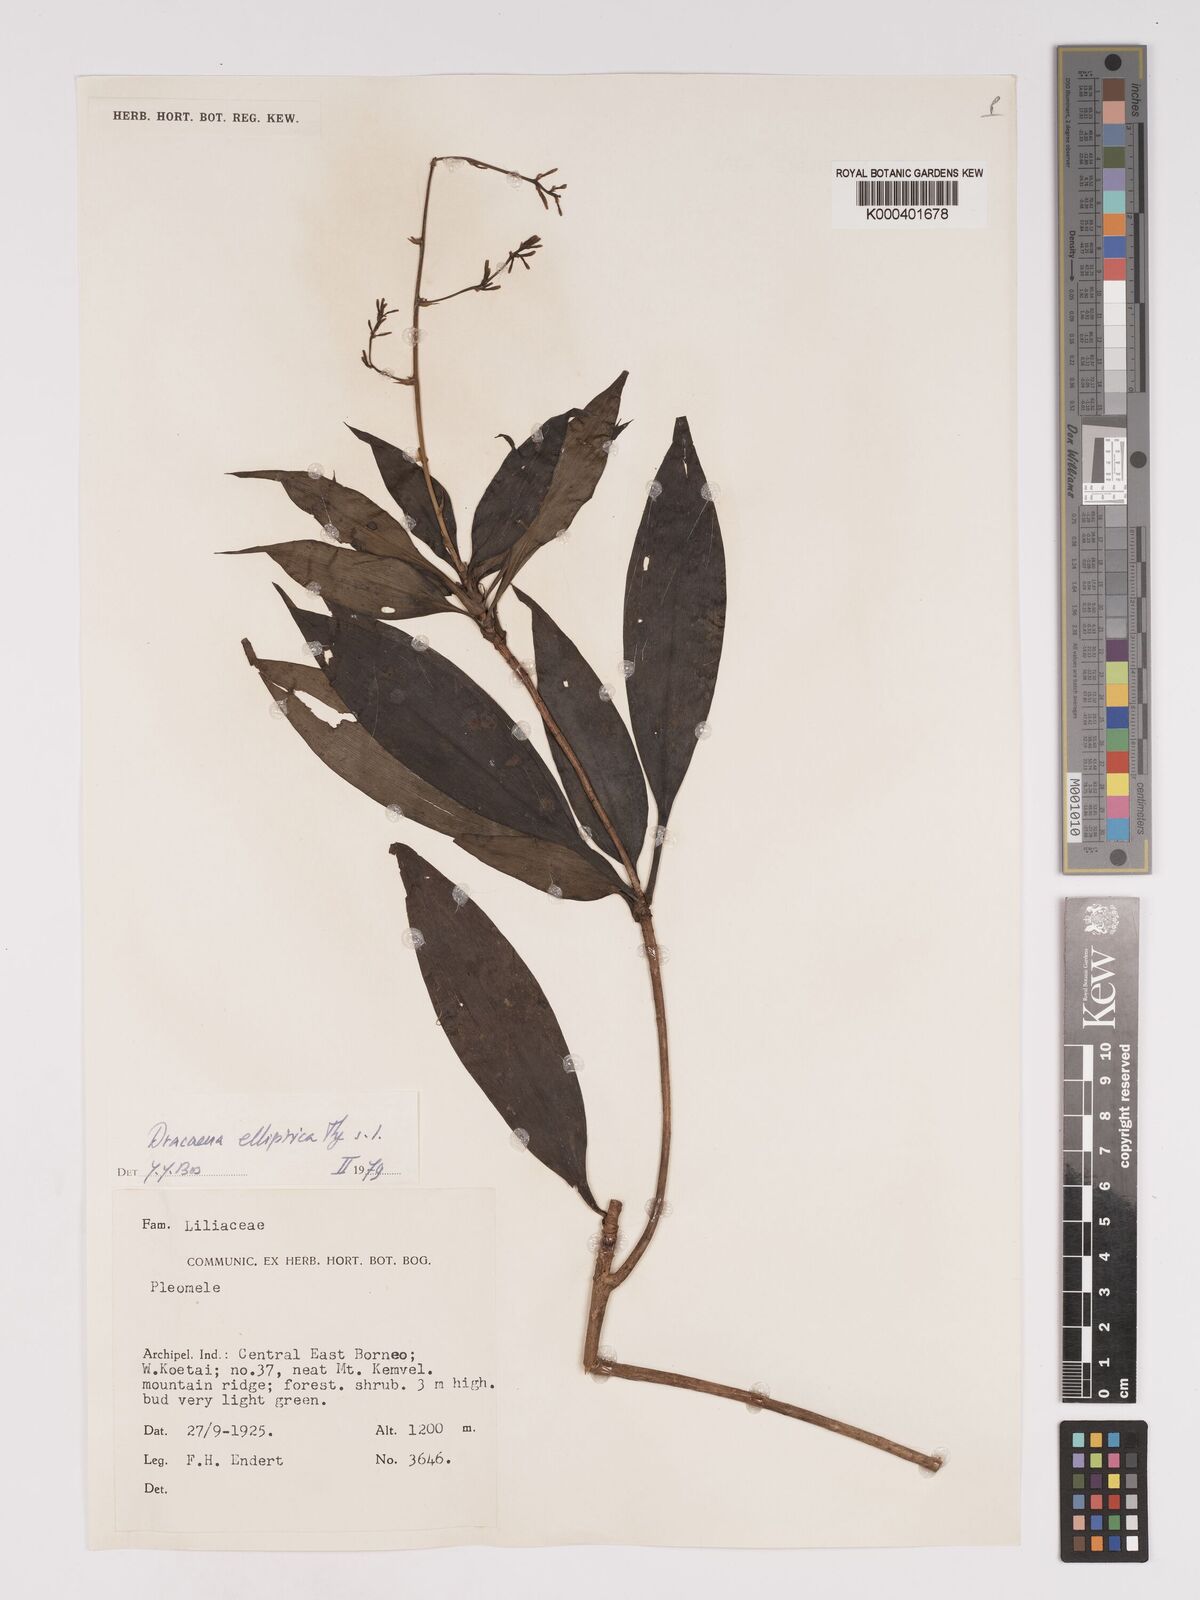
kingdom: Plantae
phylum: Tracheophyta
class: Liliopsida
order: Asparagales
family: Asparagaceae
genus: Dracaena
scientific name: Dracaena elliptica
